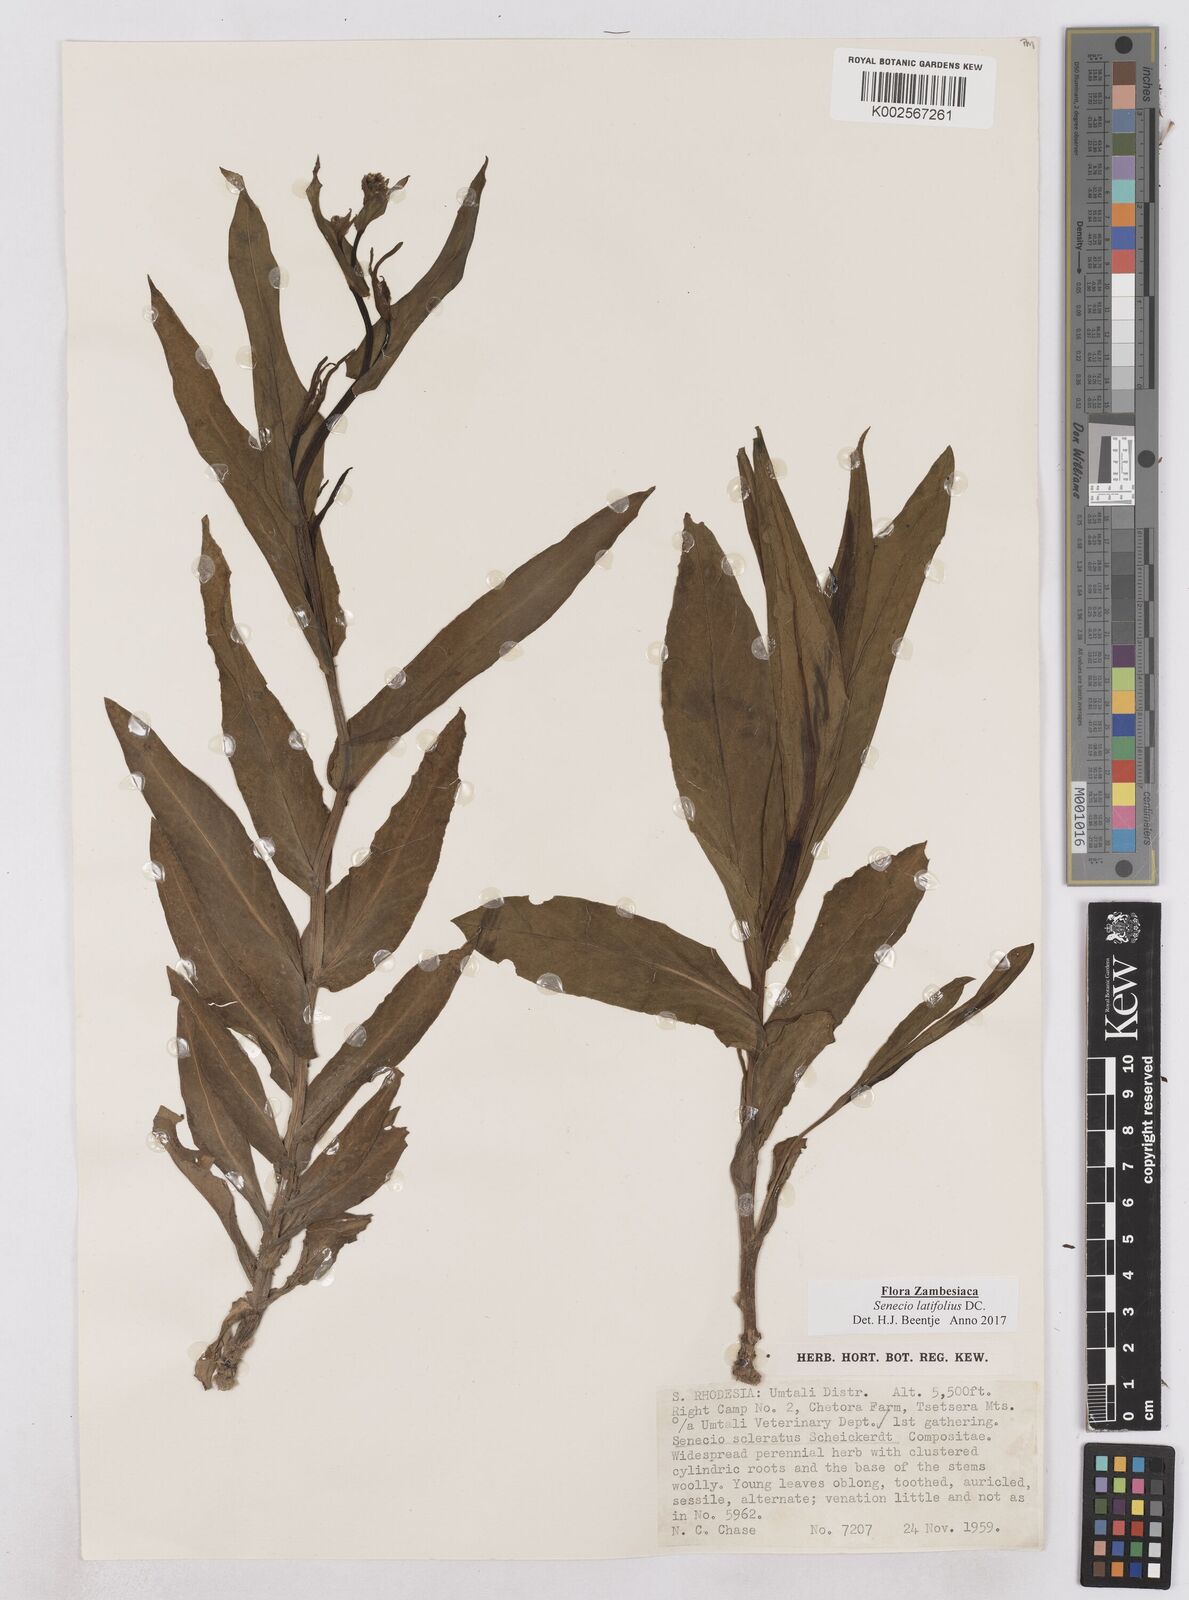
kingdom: Plantae
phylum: Tracheophyta
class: Magnoliopsida
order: Asterales
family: Asteraceae
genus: Senecio
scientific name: Senecio latifolius
